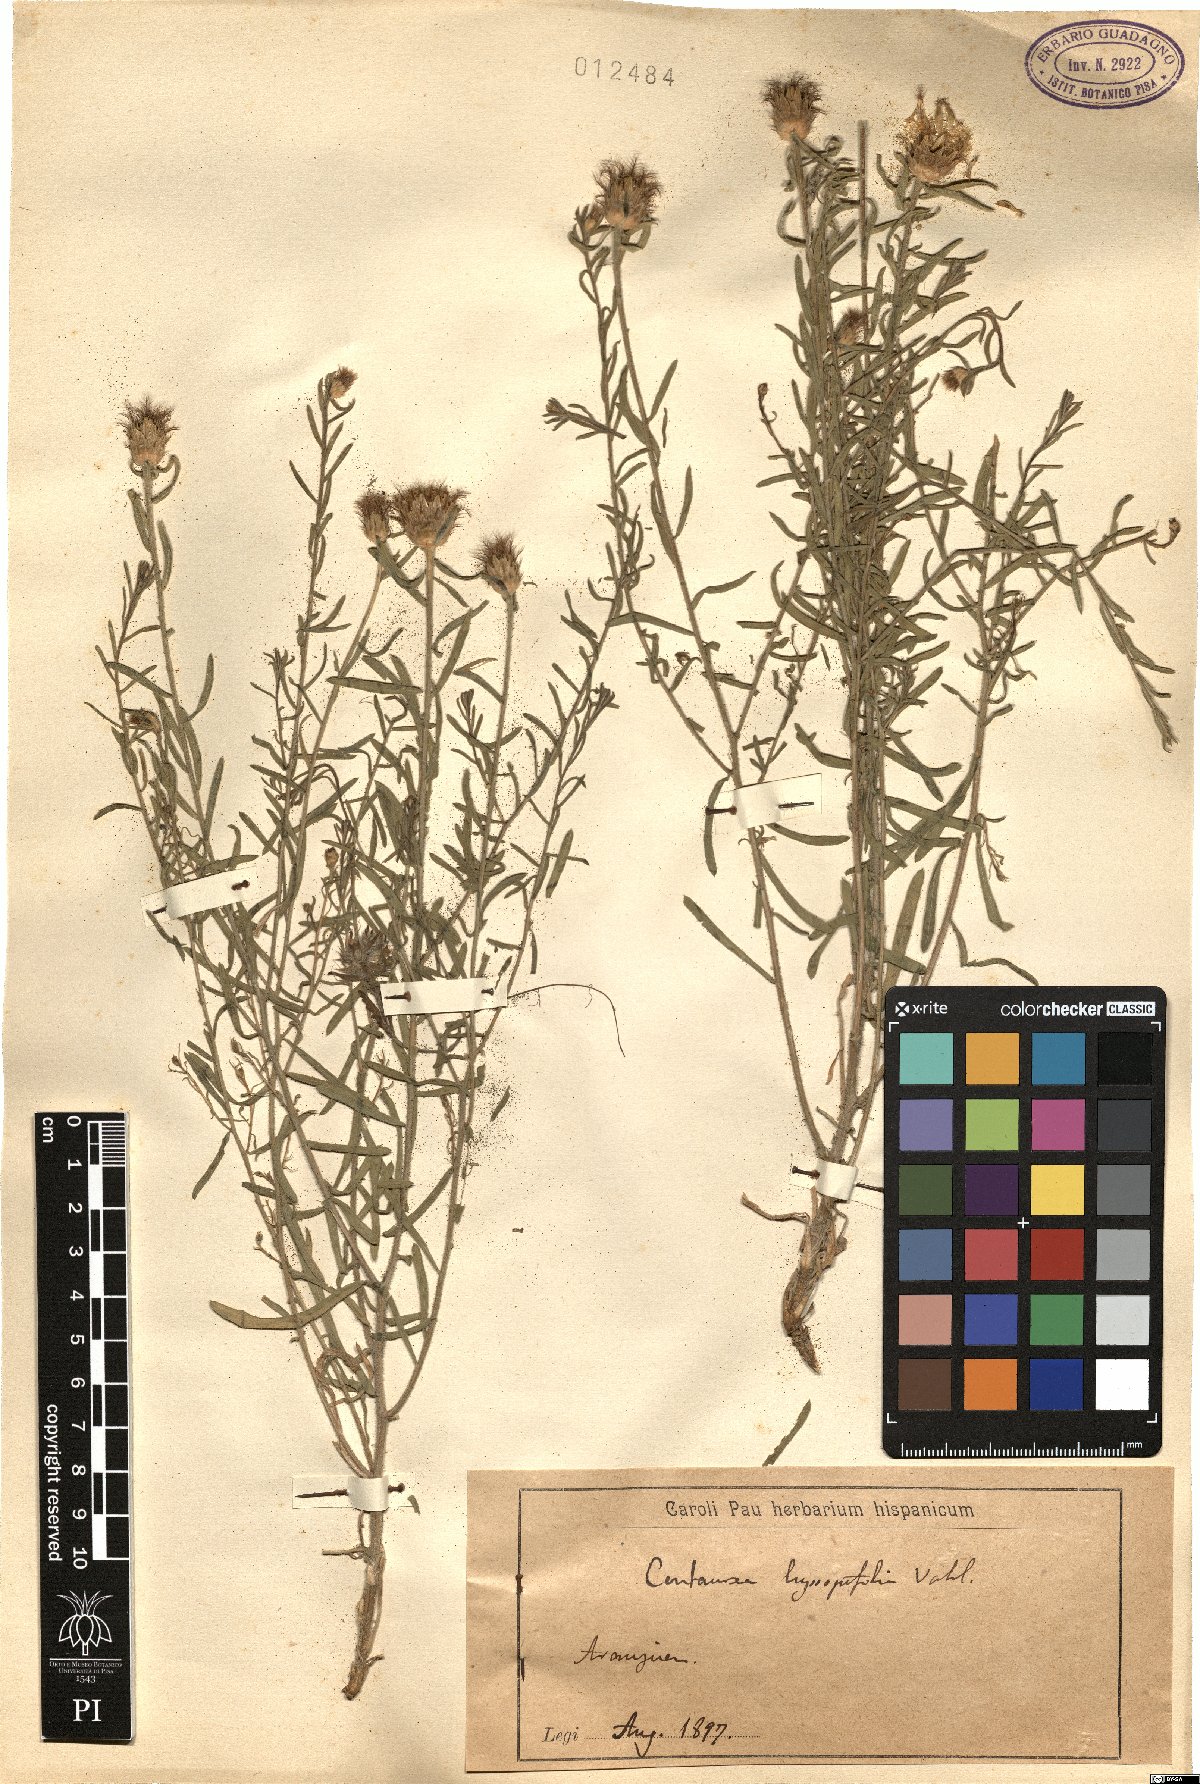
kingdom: Plantae
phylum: Tracheophyta
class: Magnoliopsida
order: Asterales
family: Asteraceae
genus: Centaurea
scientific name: Centaurea hyssopifolia
